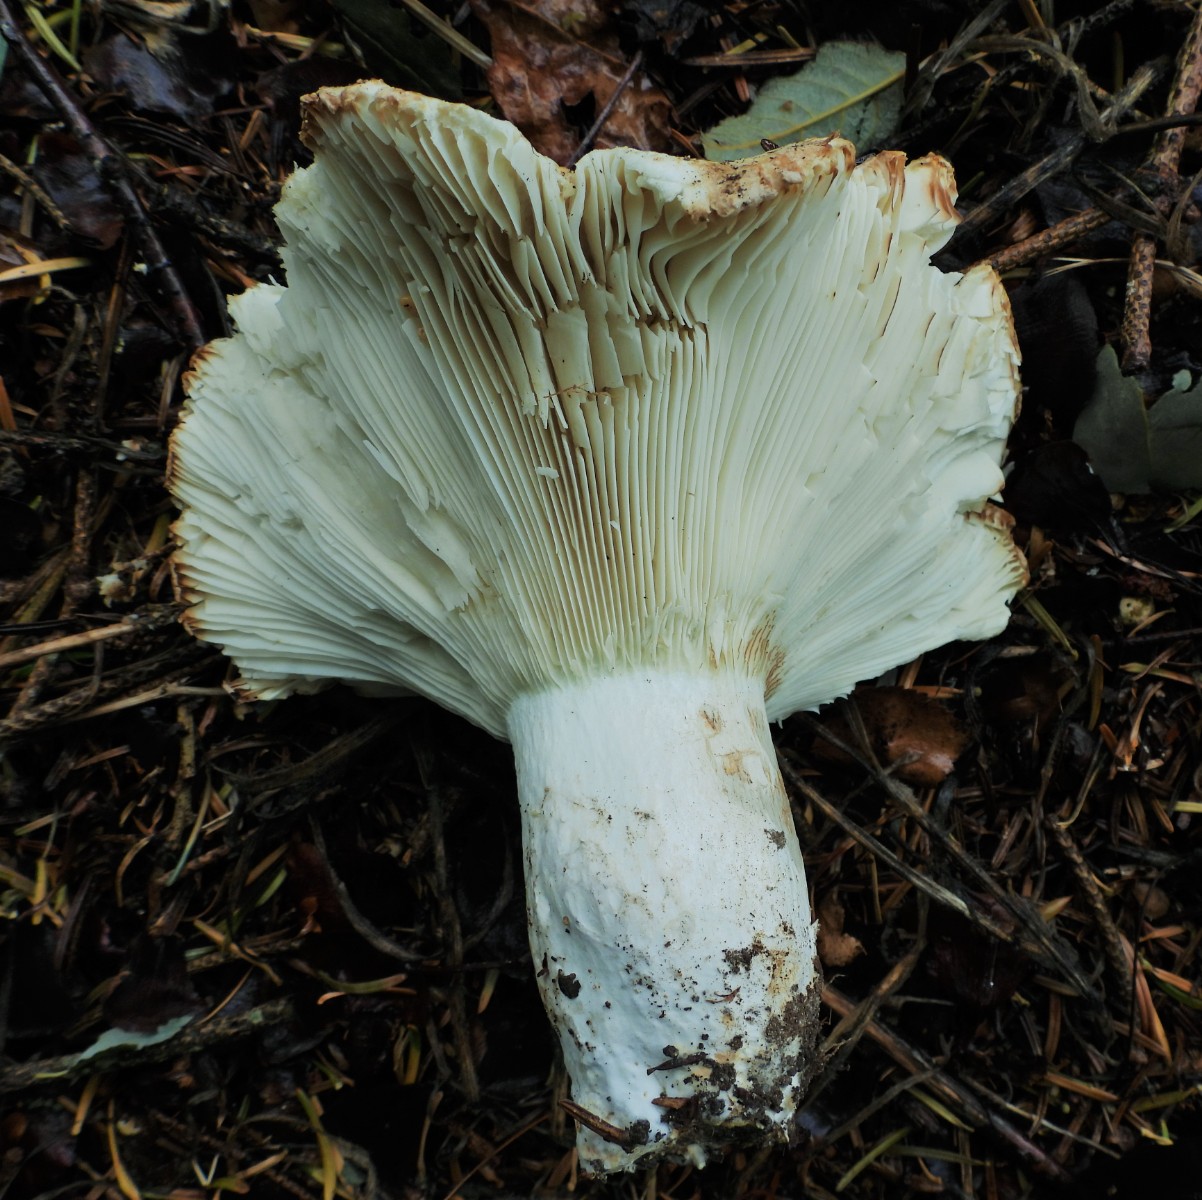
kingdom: Fungi
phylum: Basidiomycota
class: Agaricomycetes
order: Russulales
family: Russulaceae
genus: Russula
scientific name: Russula chloroides
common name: grønhalset tragt-skørhat
